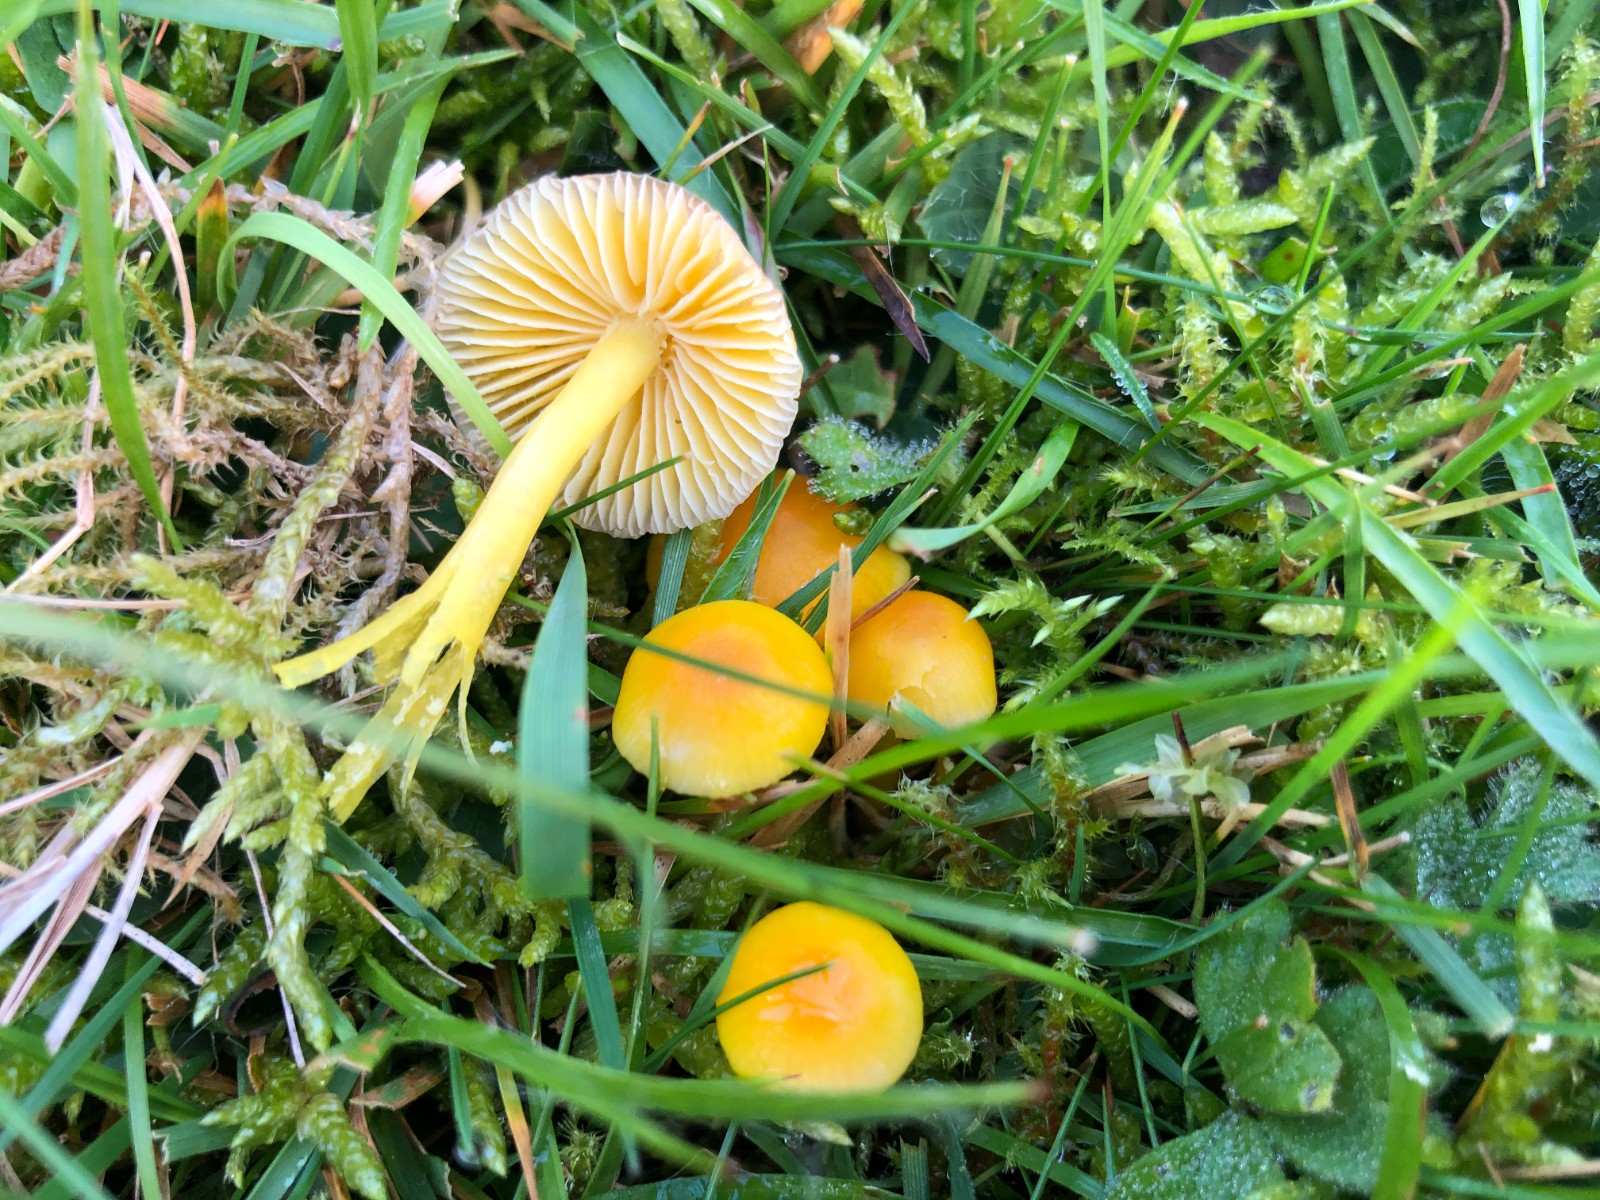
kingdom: Fungi
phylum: Basidiomycota
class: Agaricomycetes
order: Agaricales
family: Hygrophoraceae
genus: Hygrocybe
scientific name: Hygrocybe ceracea
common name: voksgul vokshat
